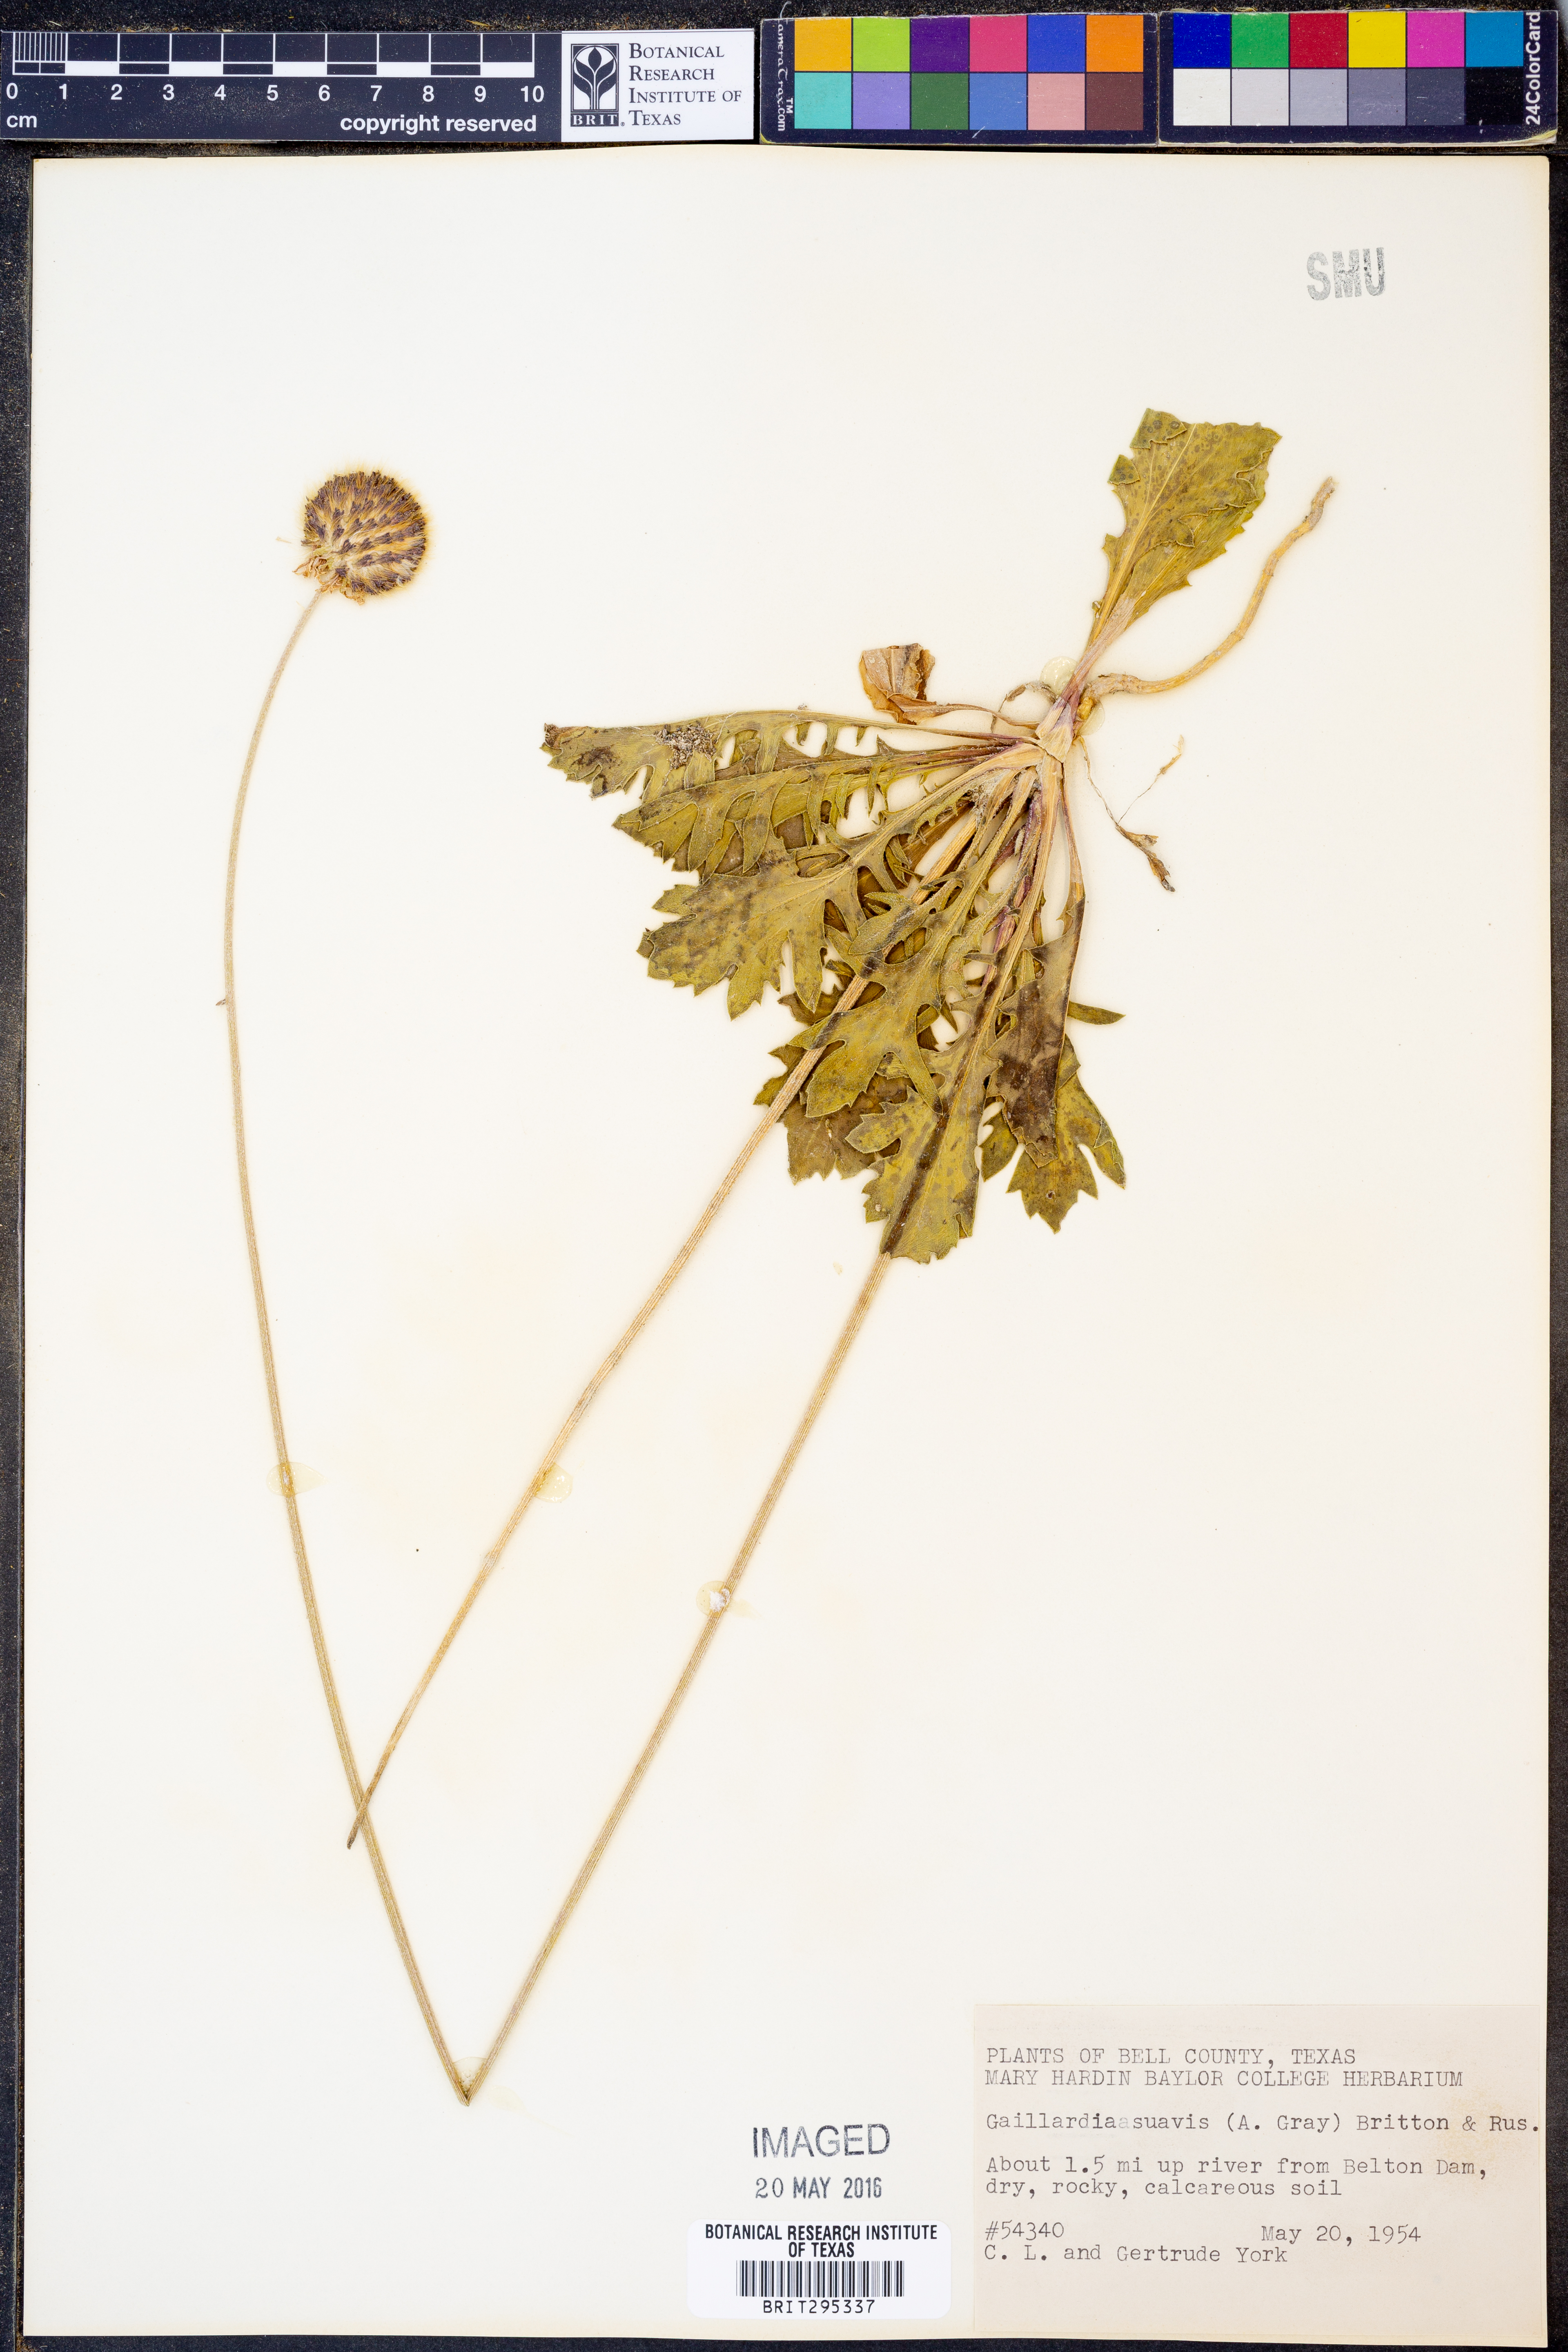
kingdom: Plantae
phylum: Tracheophyta
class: Magnoliopsida
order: Asterales
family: Asteraceae
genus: Gaillardia
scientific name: Gaillardia suavis
